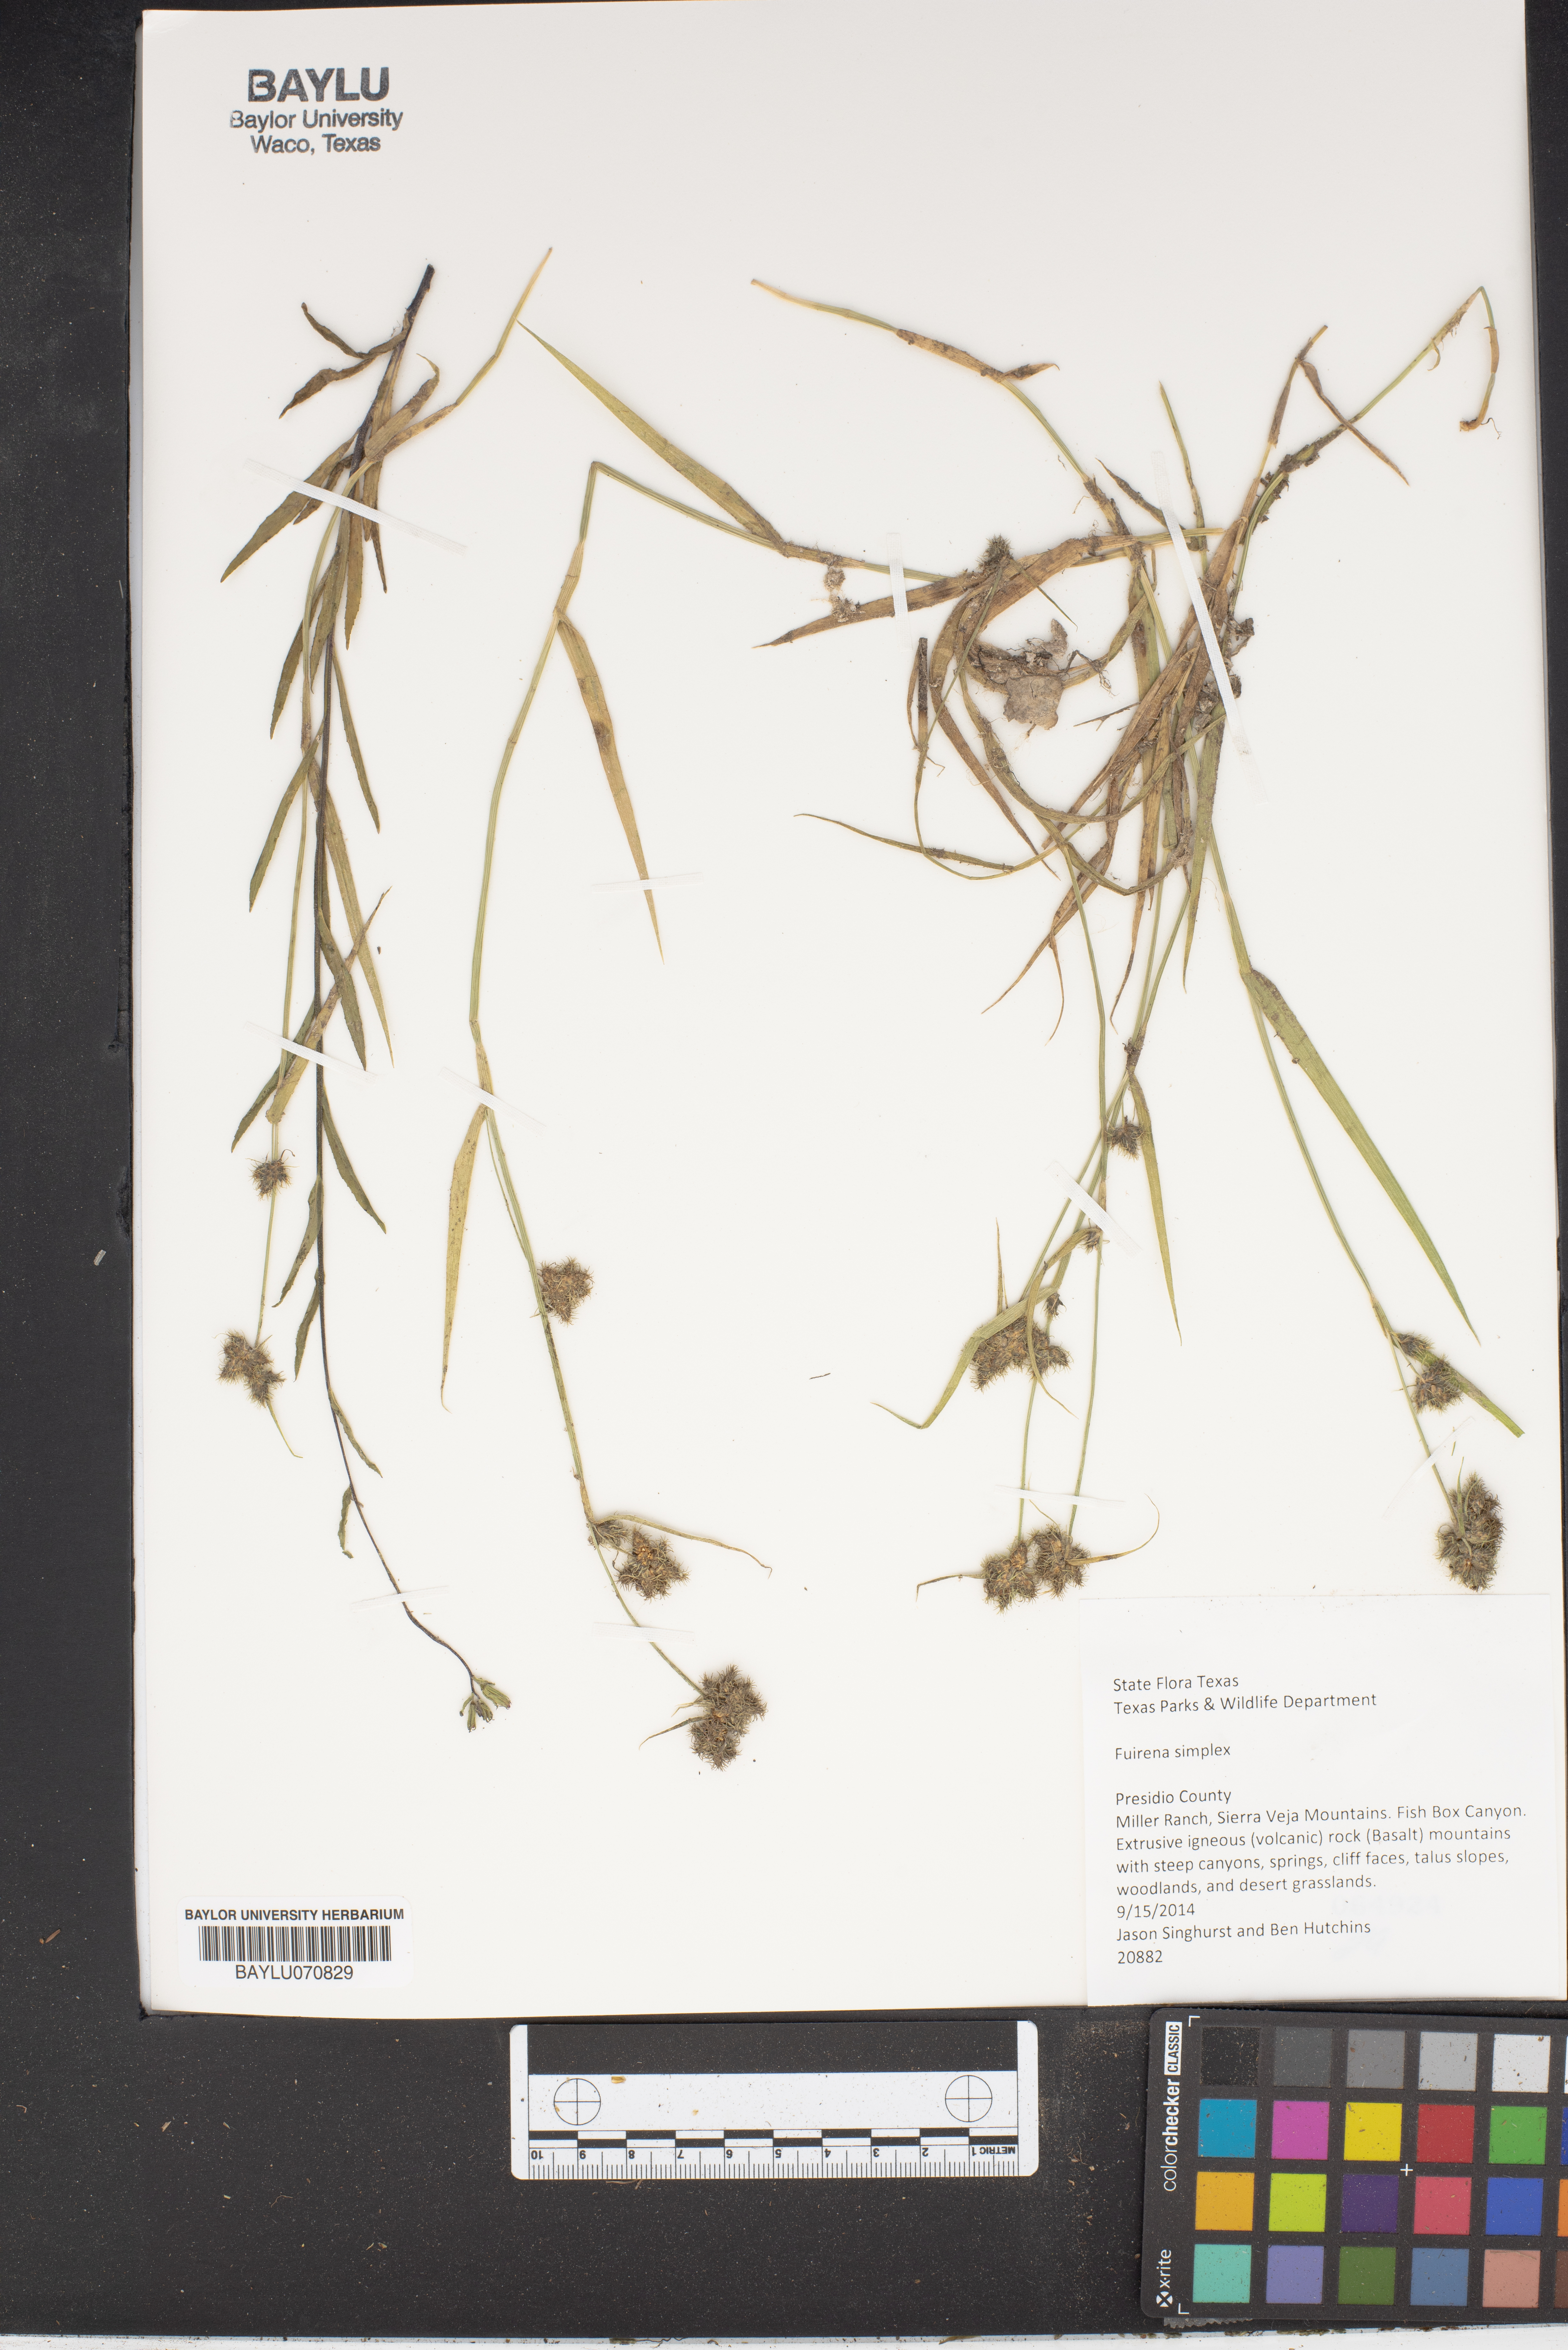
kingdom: Plantae
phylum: Tracheophyta
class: Liliopsida
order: Poales
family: Cyperaceae
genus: Fuirena
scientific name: Fuirena simplex
